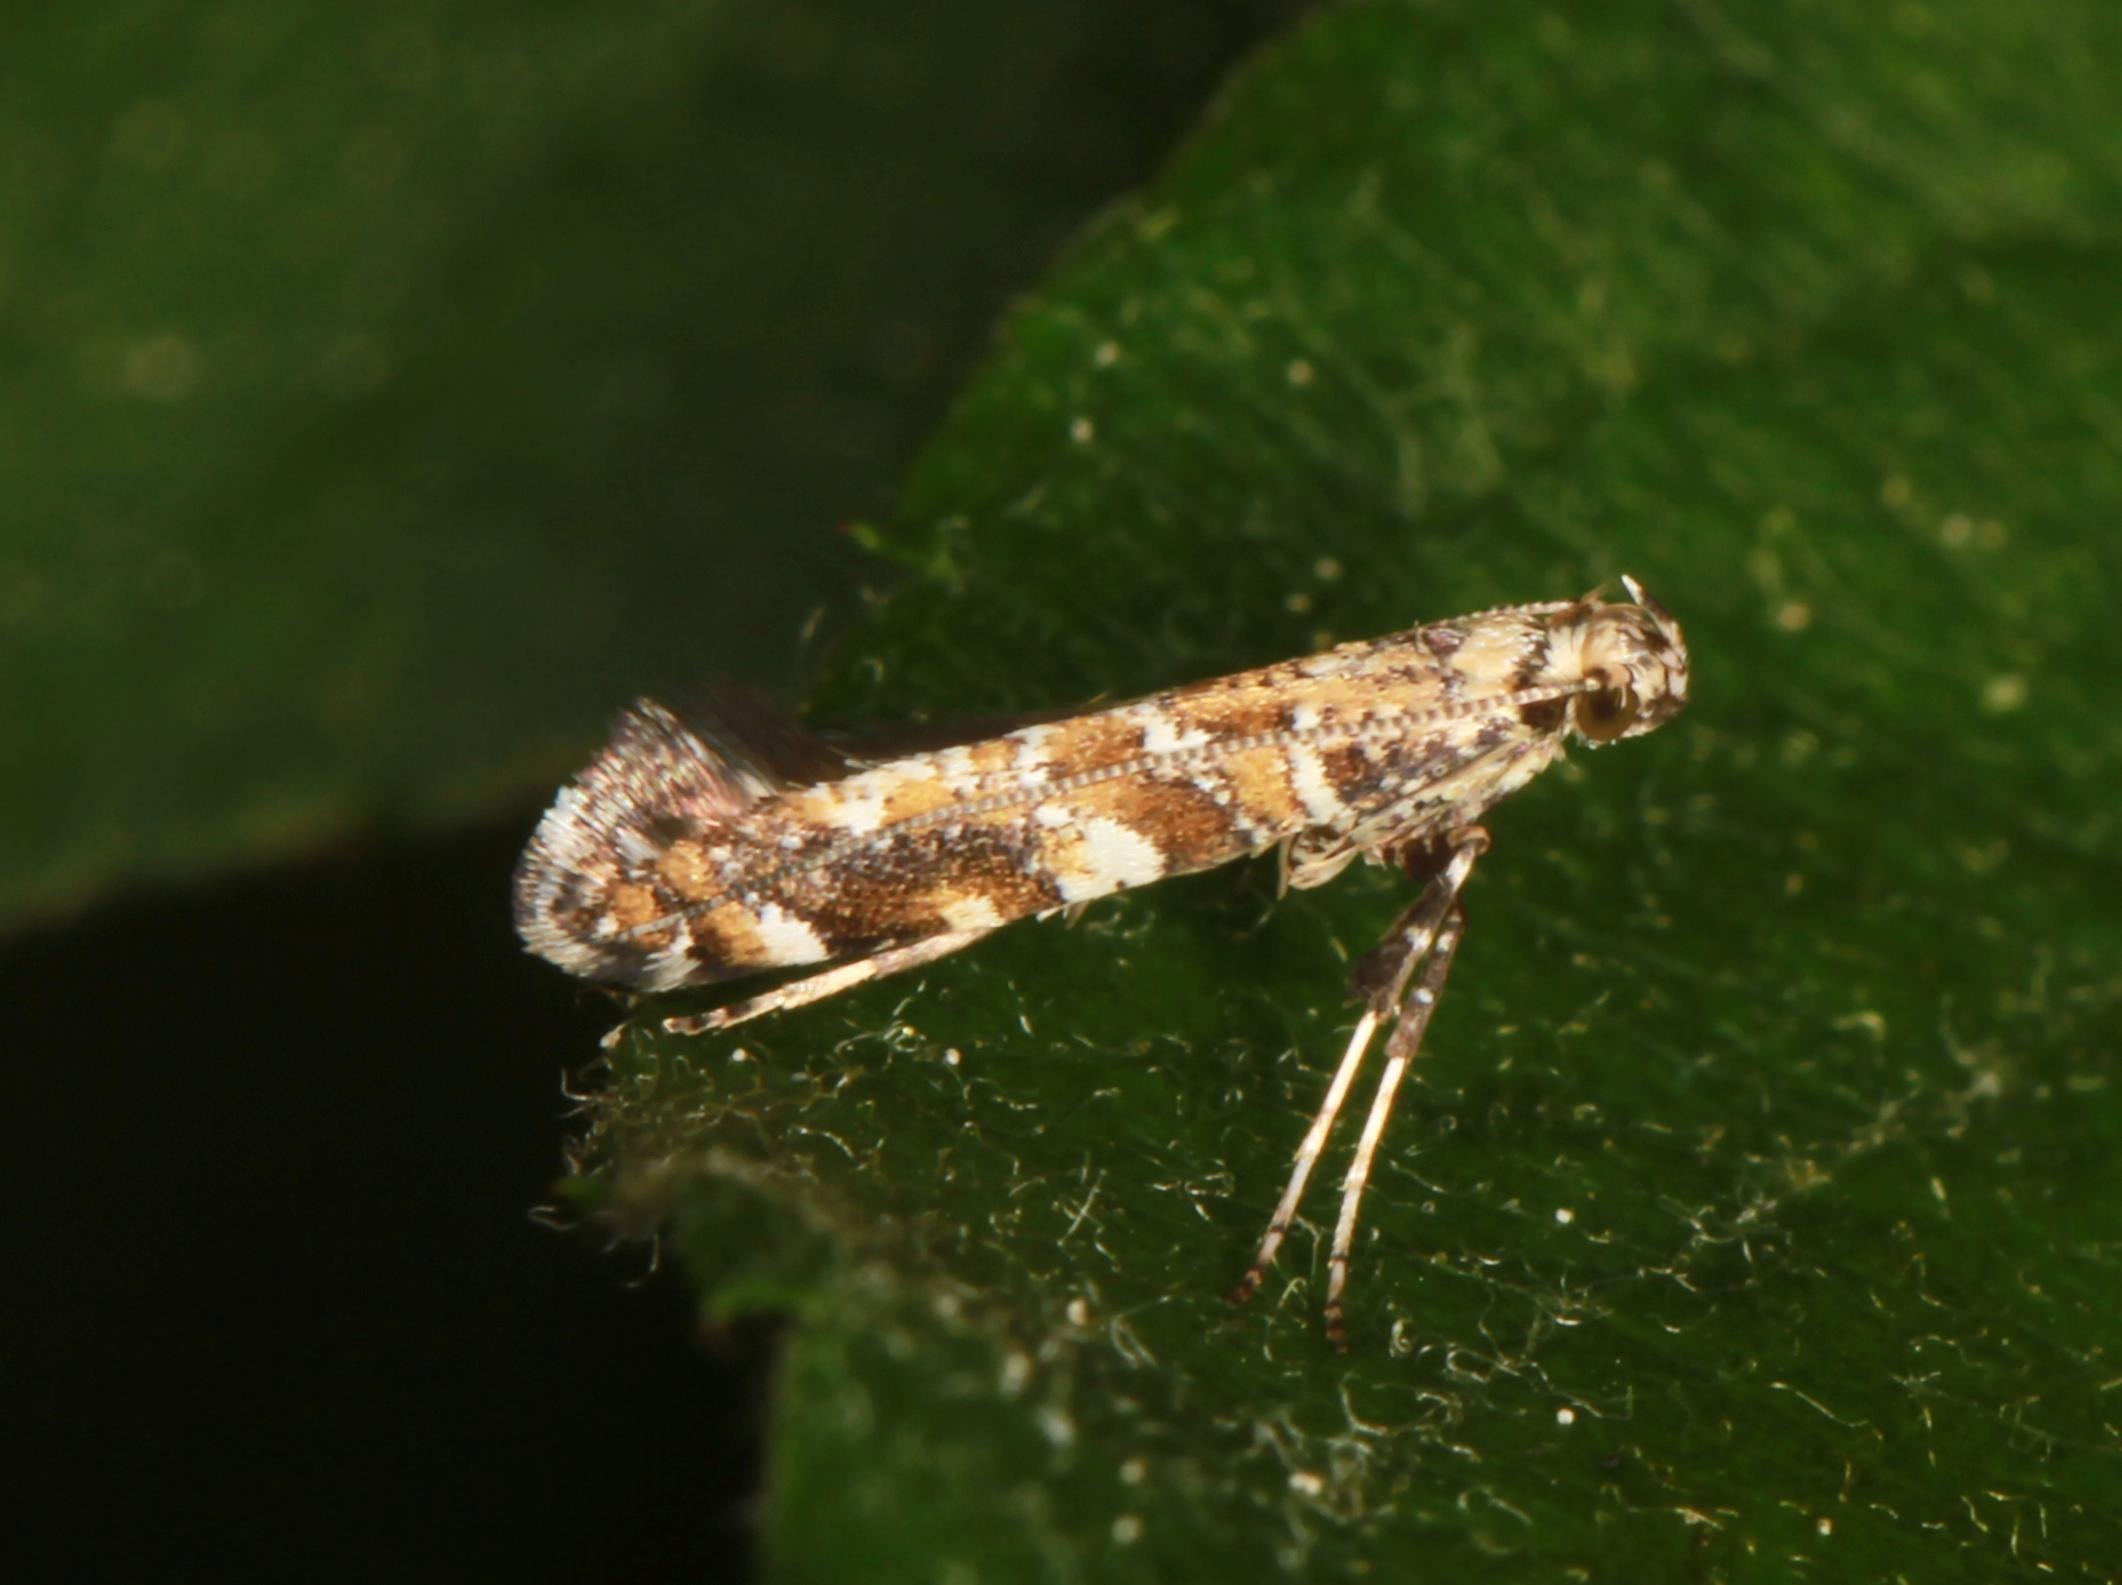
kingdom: Animalia
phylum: Arthropoda
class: Insecta
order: Lepidoptera
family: Gracillariidae
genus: Gracillaria
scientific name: Gracillaria syringella
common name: Syrenmøl
